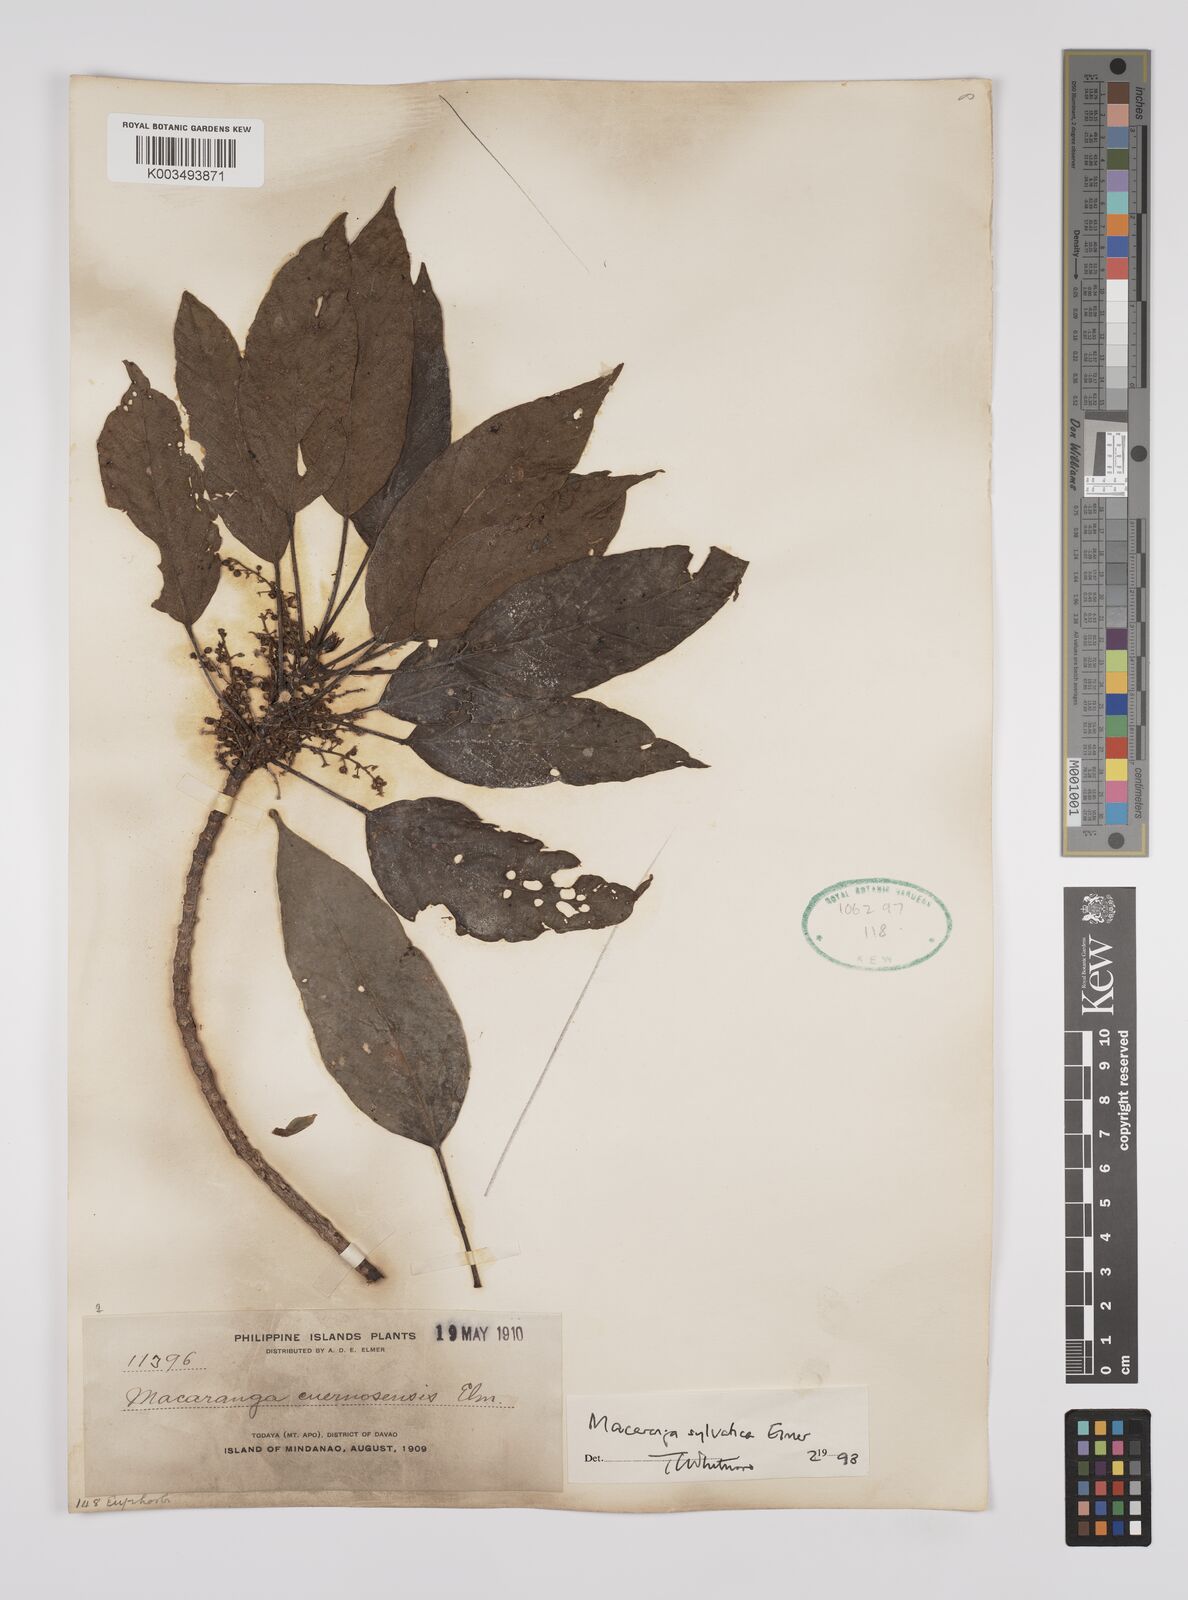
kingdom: Plantae
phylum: Tracheophyta
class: Magnoliopsida
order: Malpighiales
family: Euphorbiaceae
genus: Macaranga
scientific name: Macaranga sylvatica
